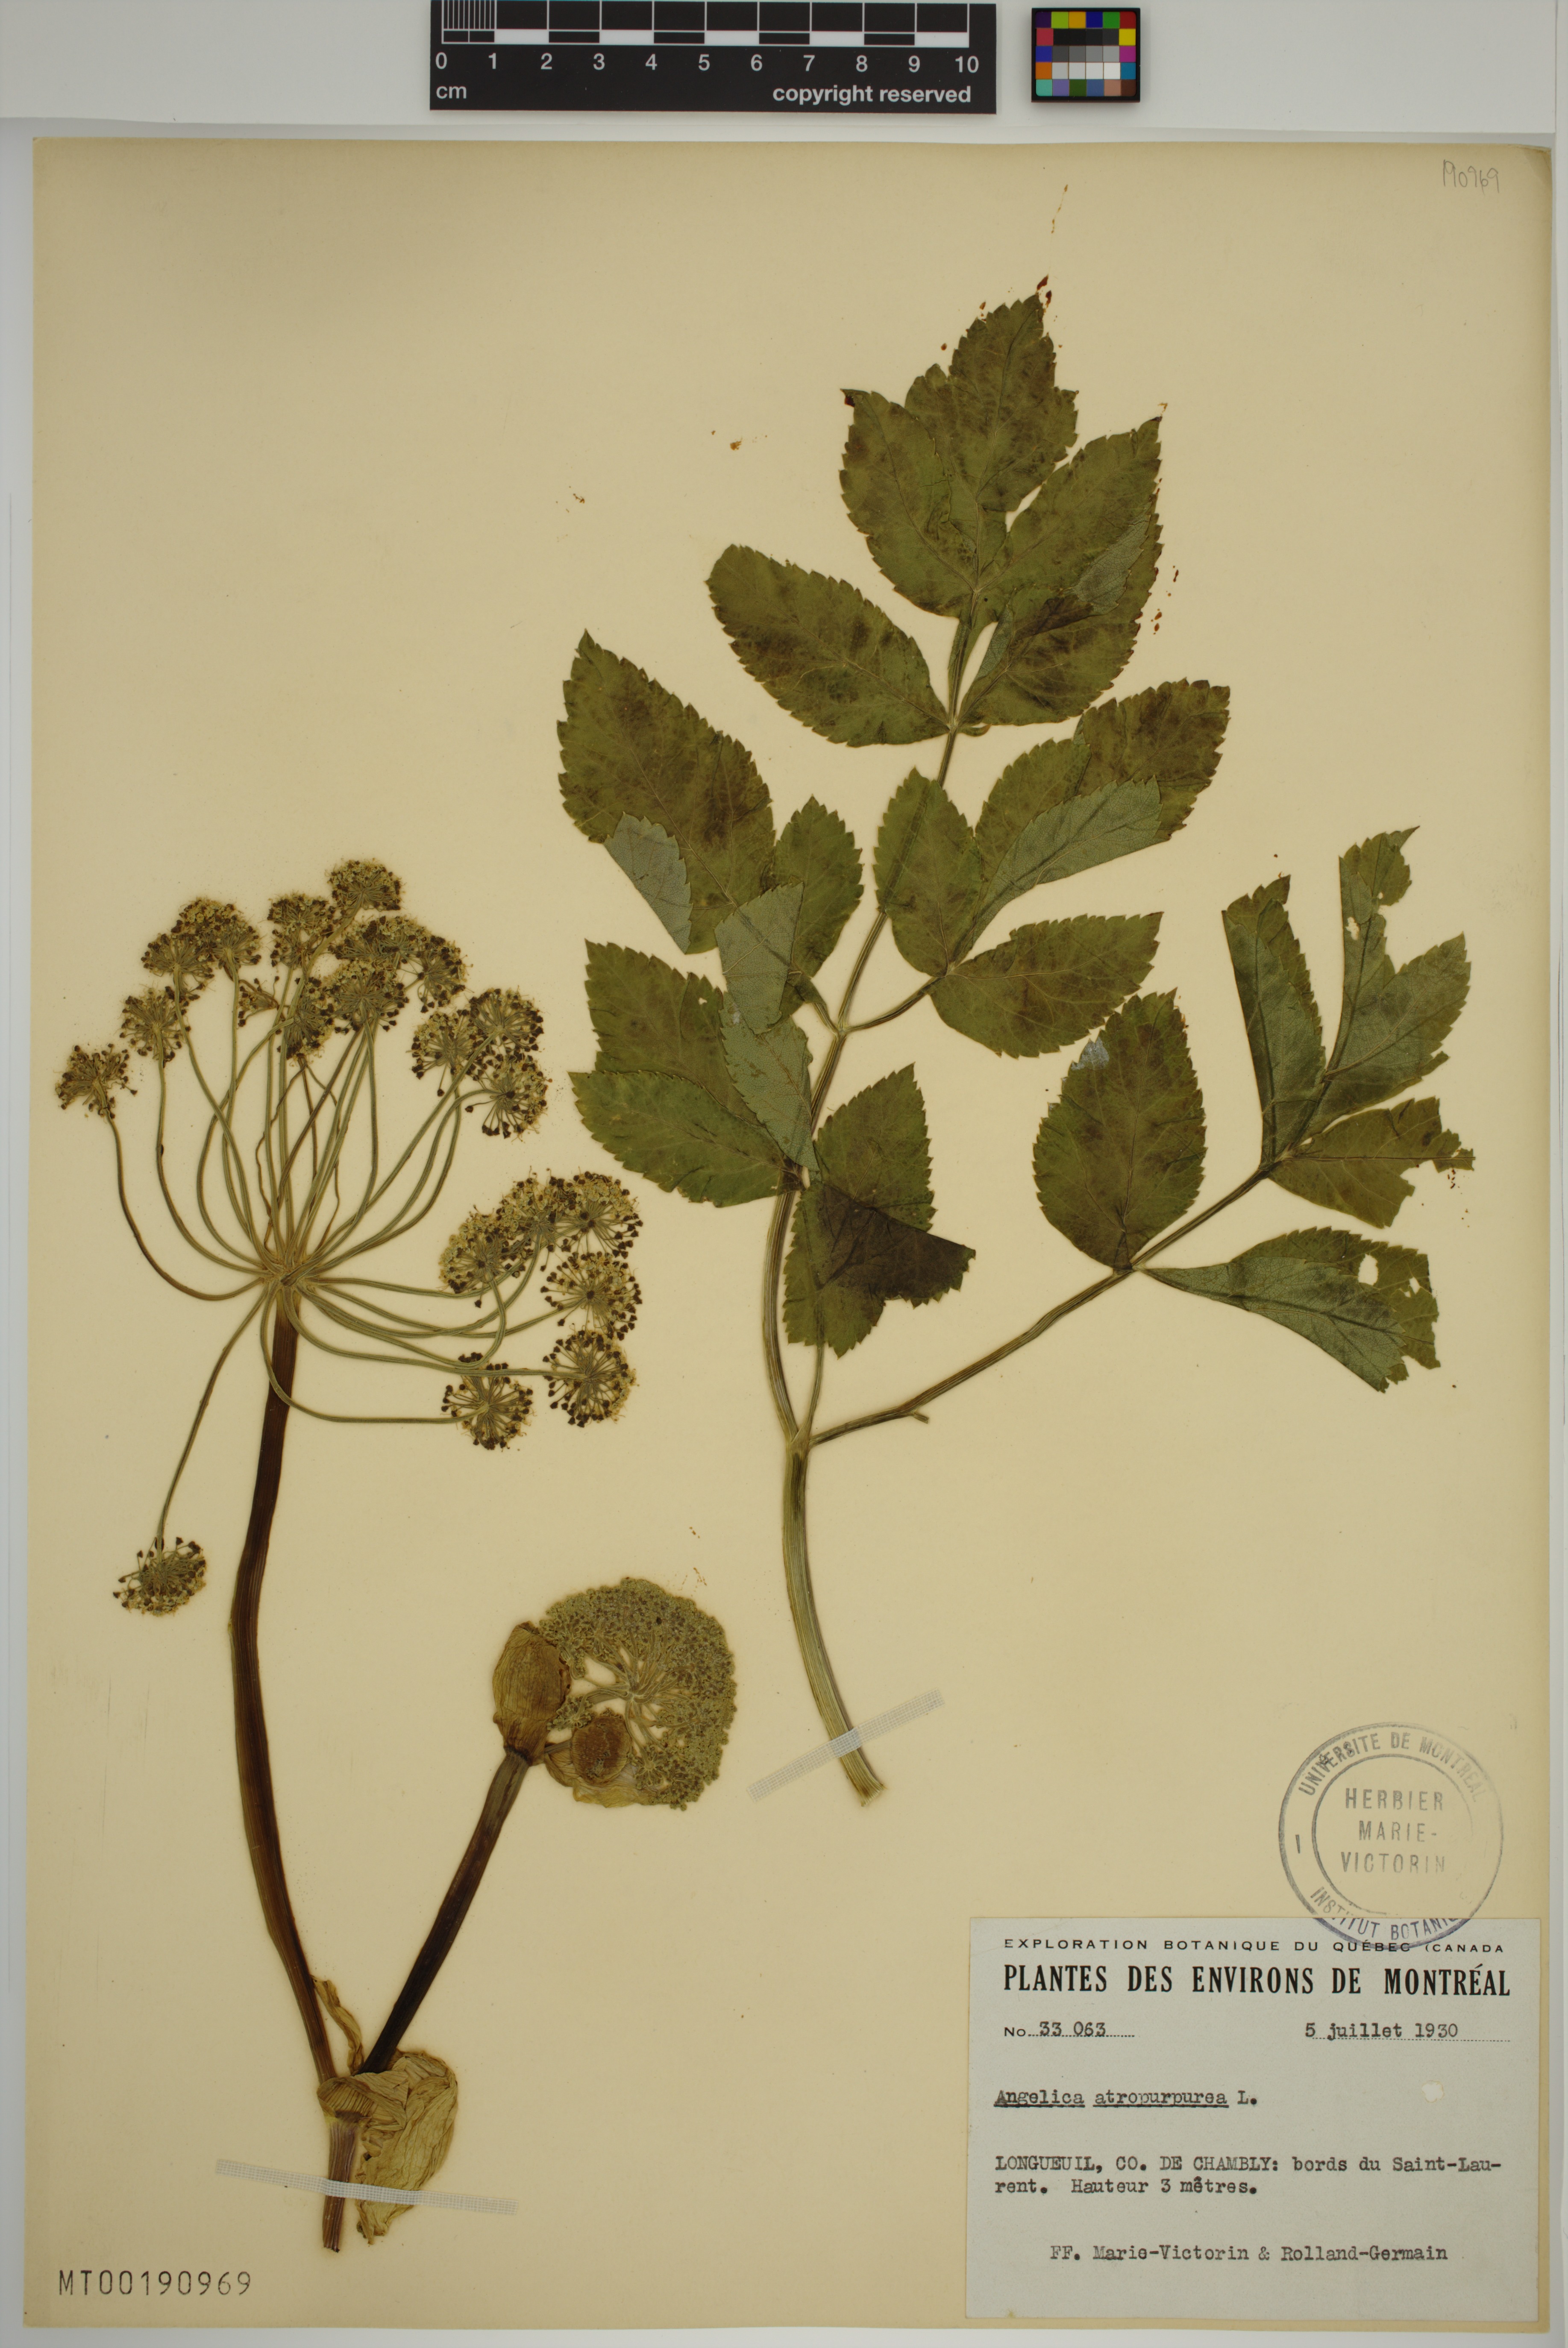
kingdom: Plantae
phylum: Tracheophyta
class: Magnoliopsida
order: Apiales
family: Apiaceae
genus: Angelica
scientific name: Angelica atropurpurea
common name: Great angelica
